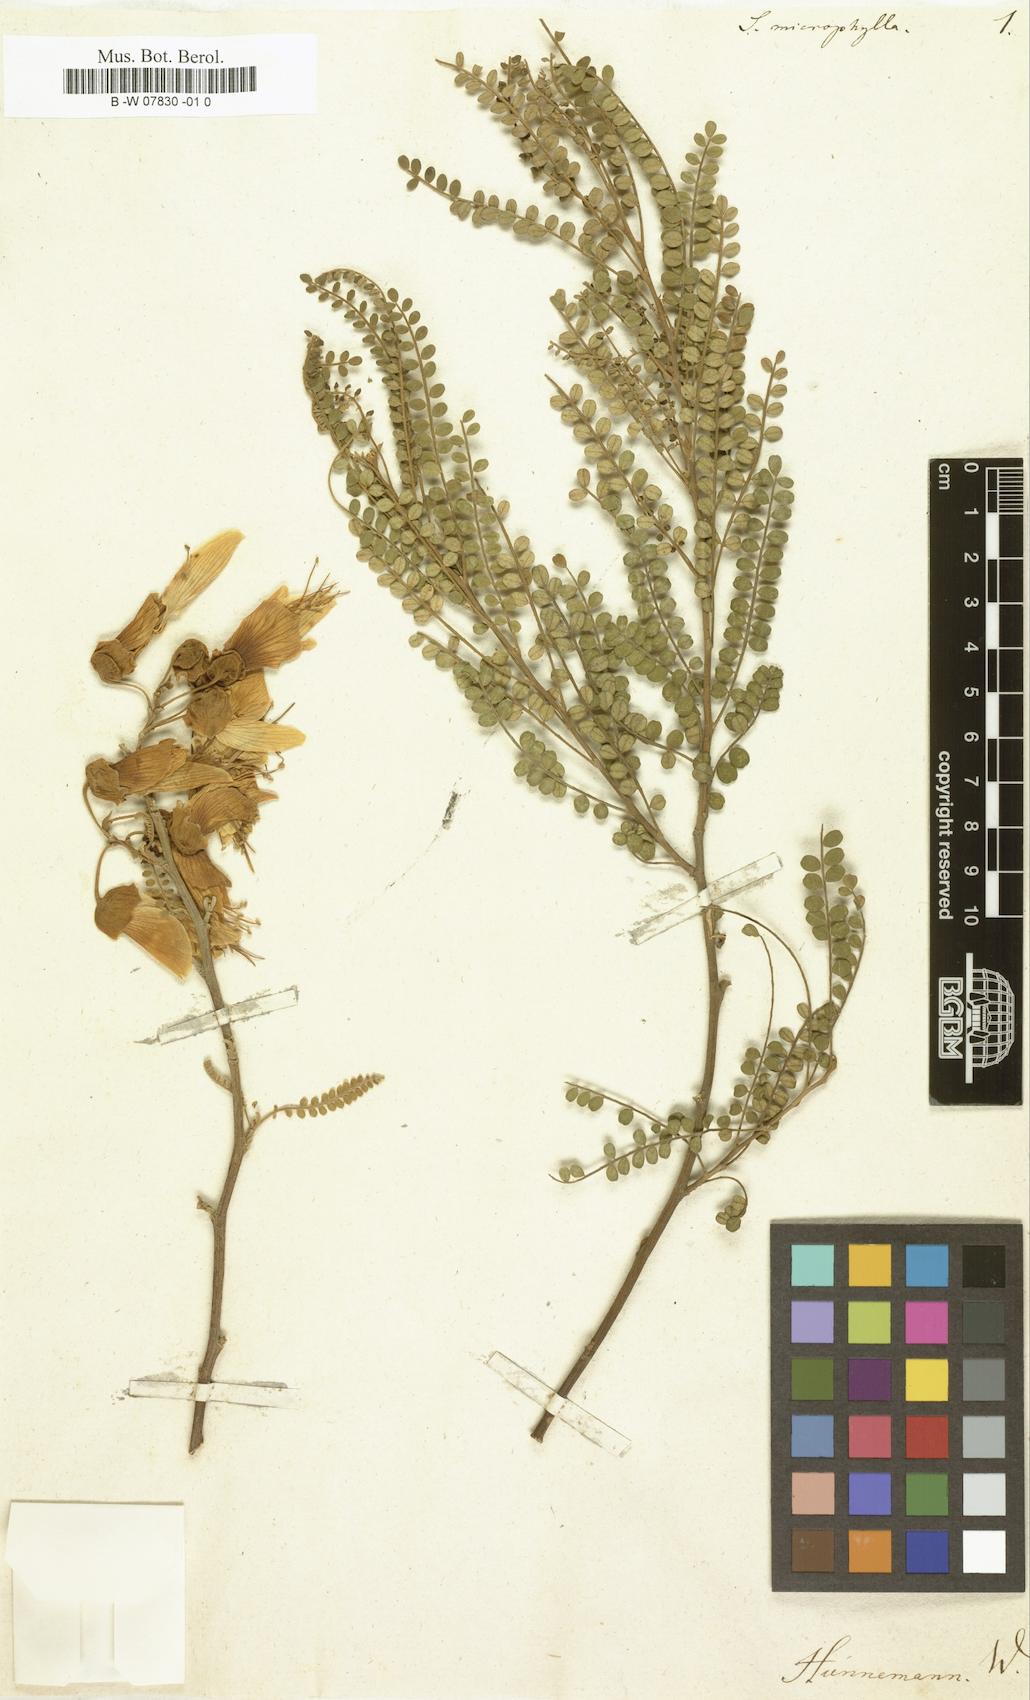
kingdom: Plantae
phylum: Tracheophyta
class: Magnoliopsida
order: Fabales
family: Fabaceae
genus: Sophora
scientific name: Sophora microphylla
